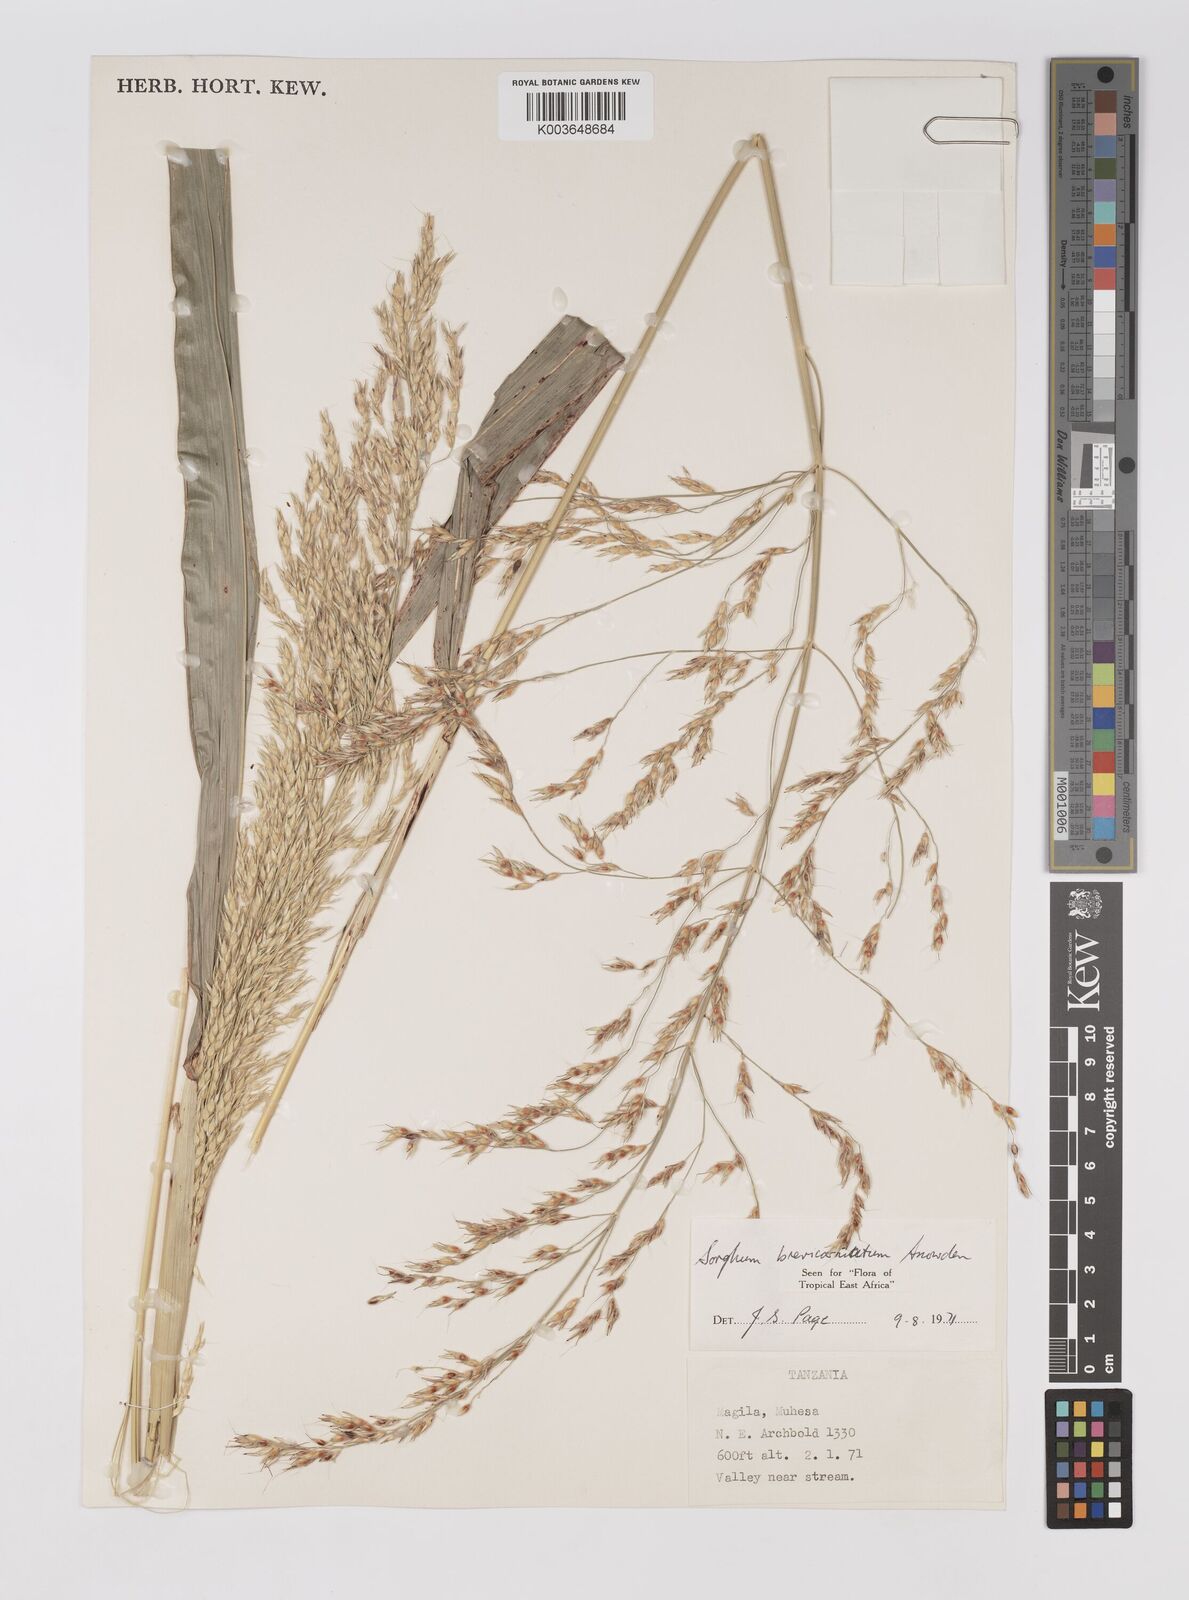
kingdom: Plantae
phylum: Tracheophyta
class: Liliopsida
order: Poales
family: Poaceae
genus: Sorghum
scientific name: Sorghum arundinaceum
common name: Sorghum
